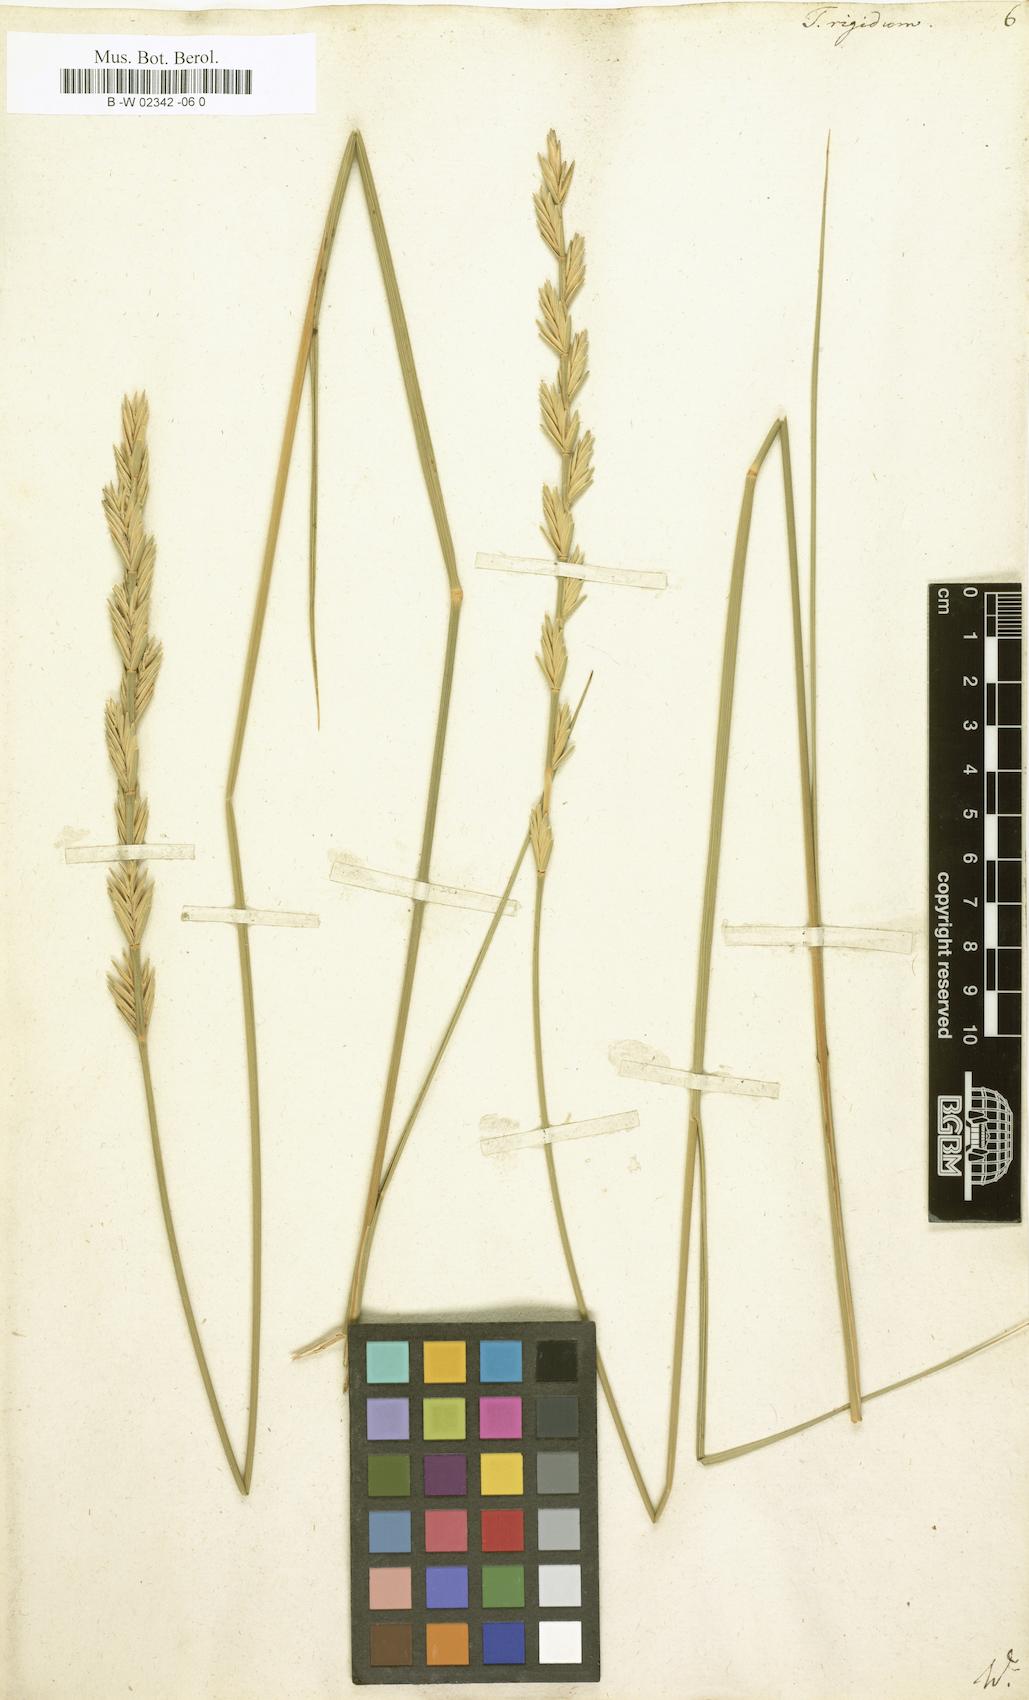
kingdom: Plantae
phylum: Tracheophyta
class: Liliopsida
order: Poales
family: Poaceae
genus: Thinopyrum
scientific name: Thinopyrum
